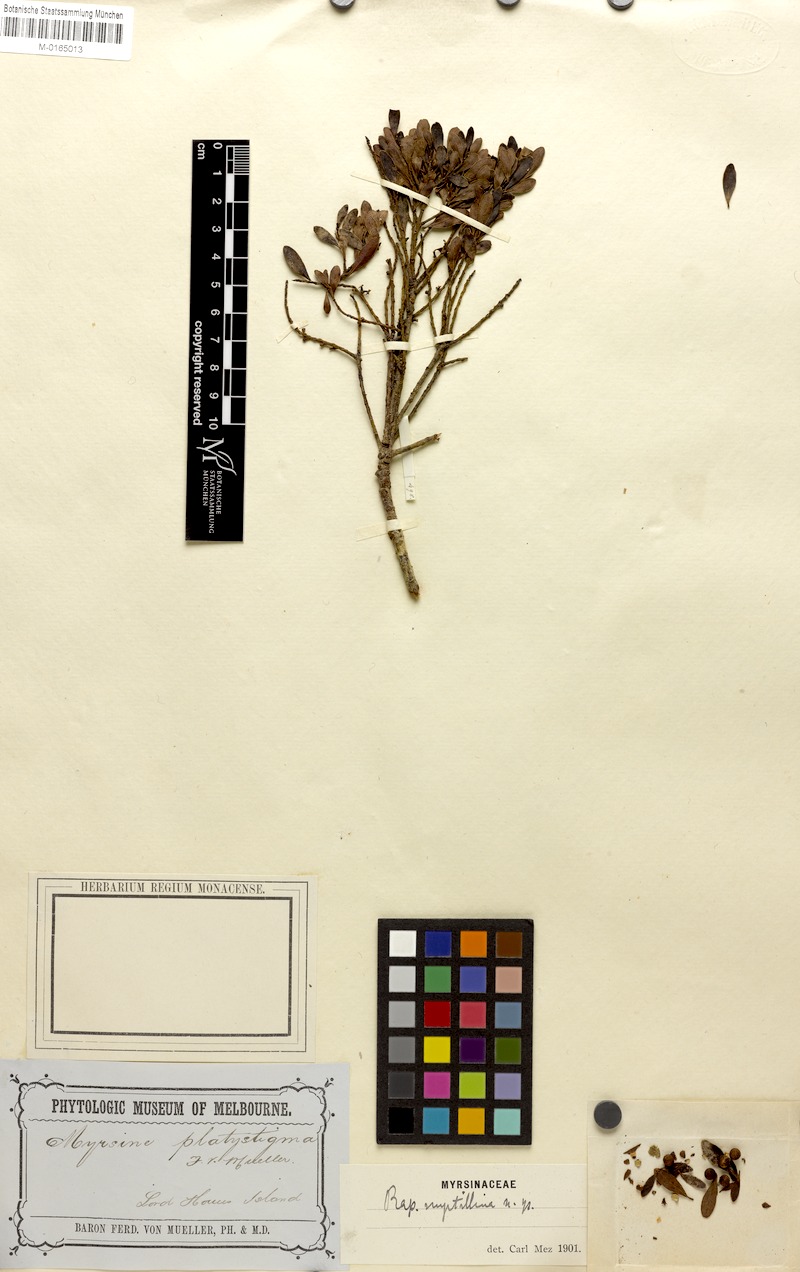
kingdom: Plantae
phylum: Tracheophyta
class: Magnoliopsida
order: Ericales
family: Primulaceae
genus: Myrsine
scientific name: Myrsine myrtillina
